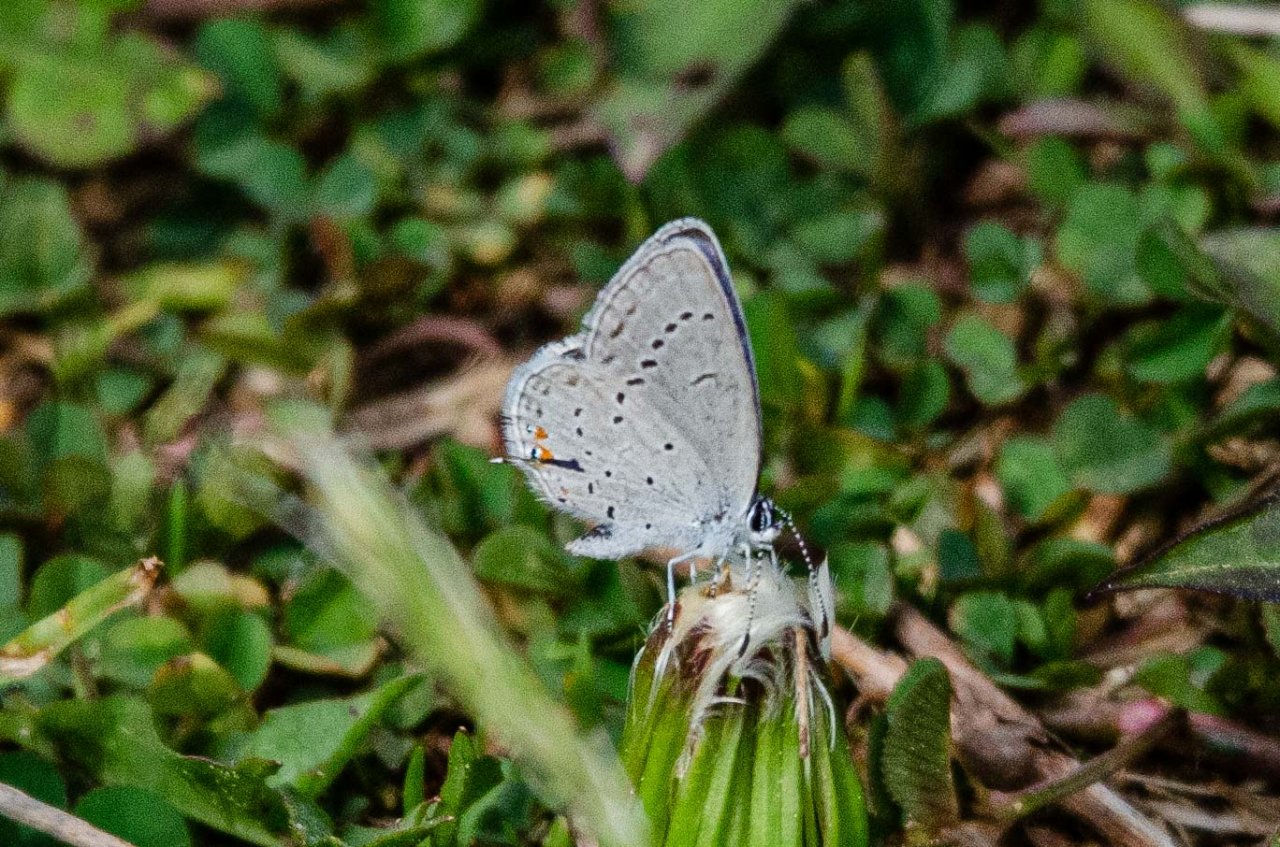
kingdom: Animalia
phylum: Arthropoda
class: Insecta
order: Lepidoptera
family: Lycaenidae
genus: Elkalyce
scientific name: Elkalyce comyntas
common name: Eastern Tailed-Blue
